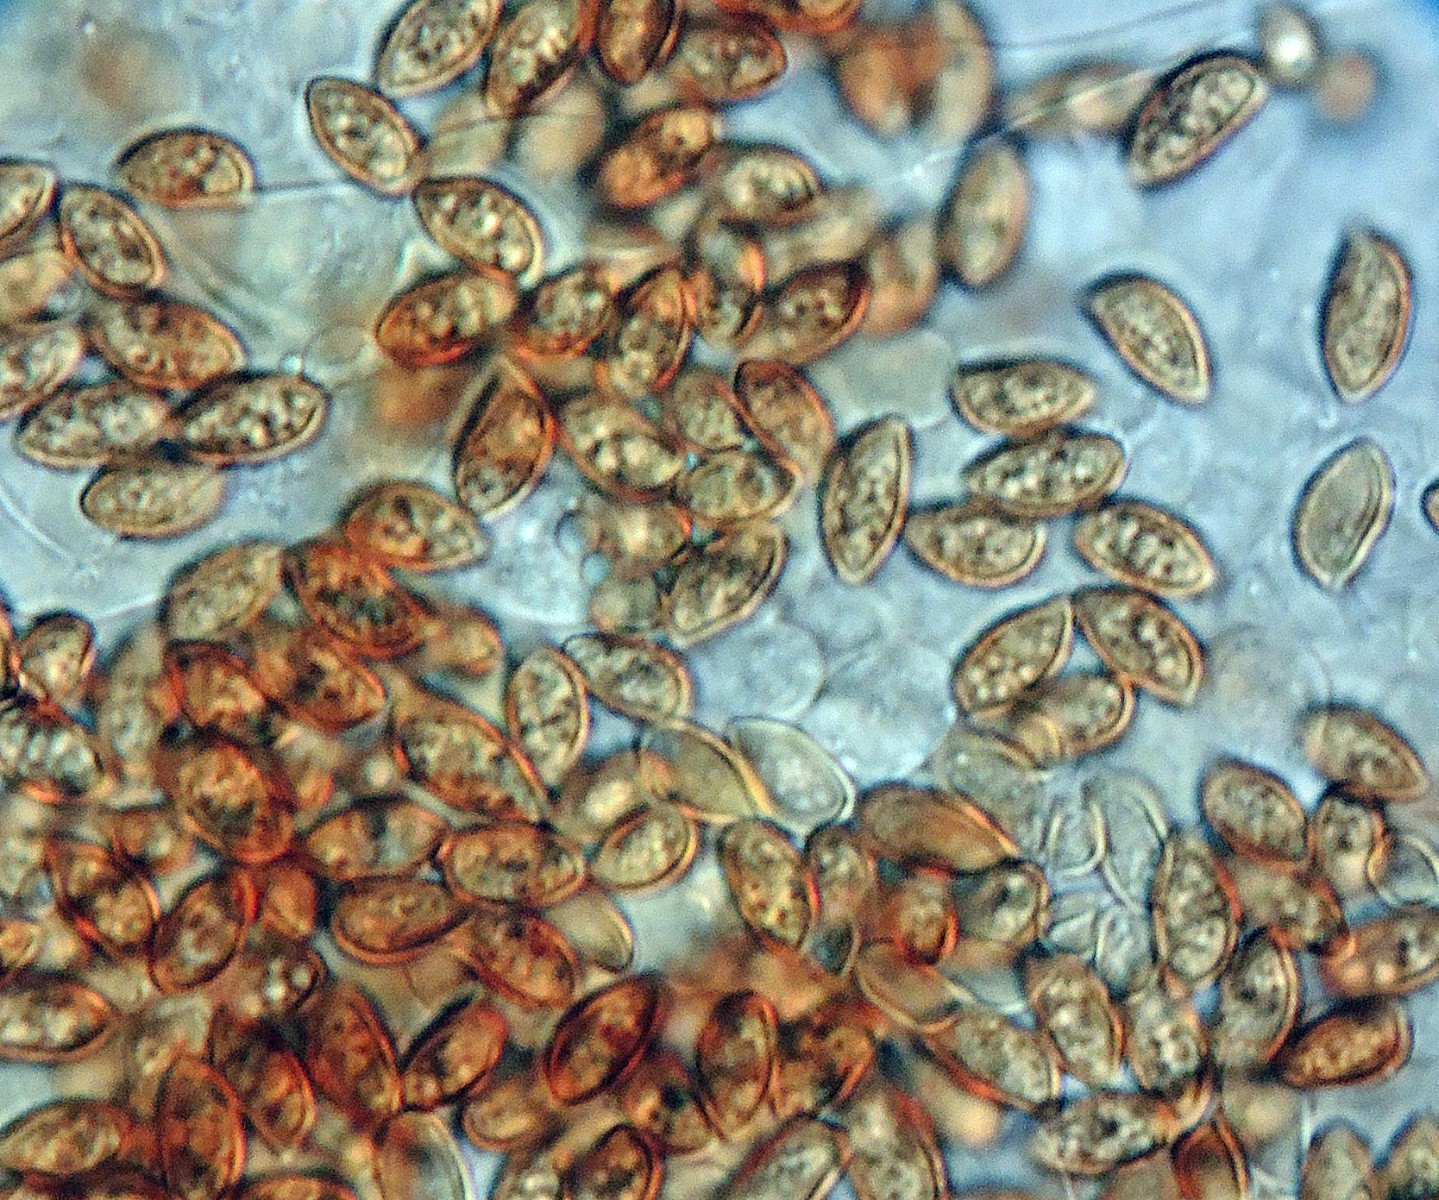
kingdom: Fungi
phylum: Basidiomycota
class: Agaricomycetes
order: Agaricales
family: Hymenogastraceae
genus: Galerina
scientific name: Galerina
